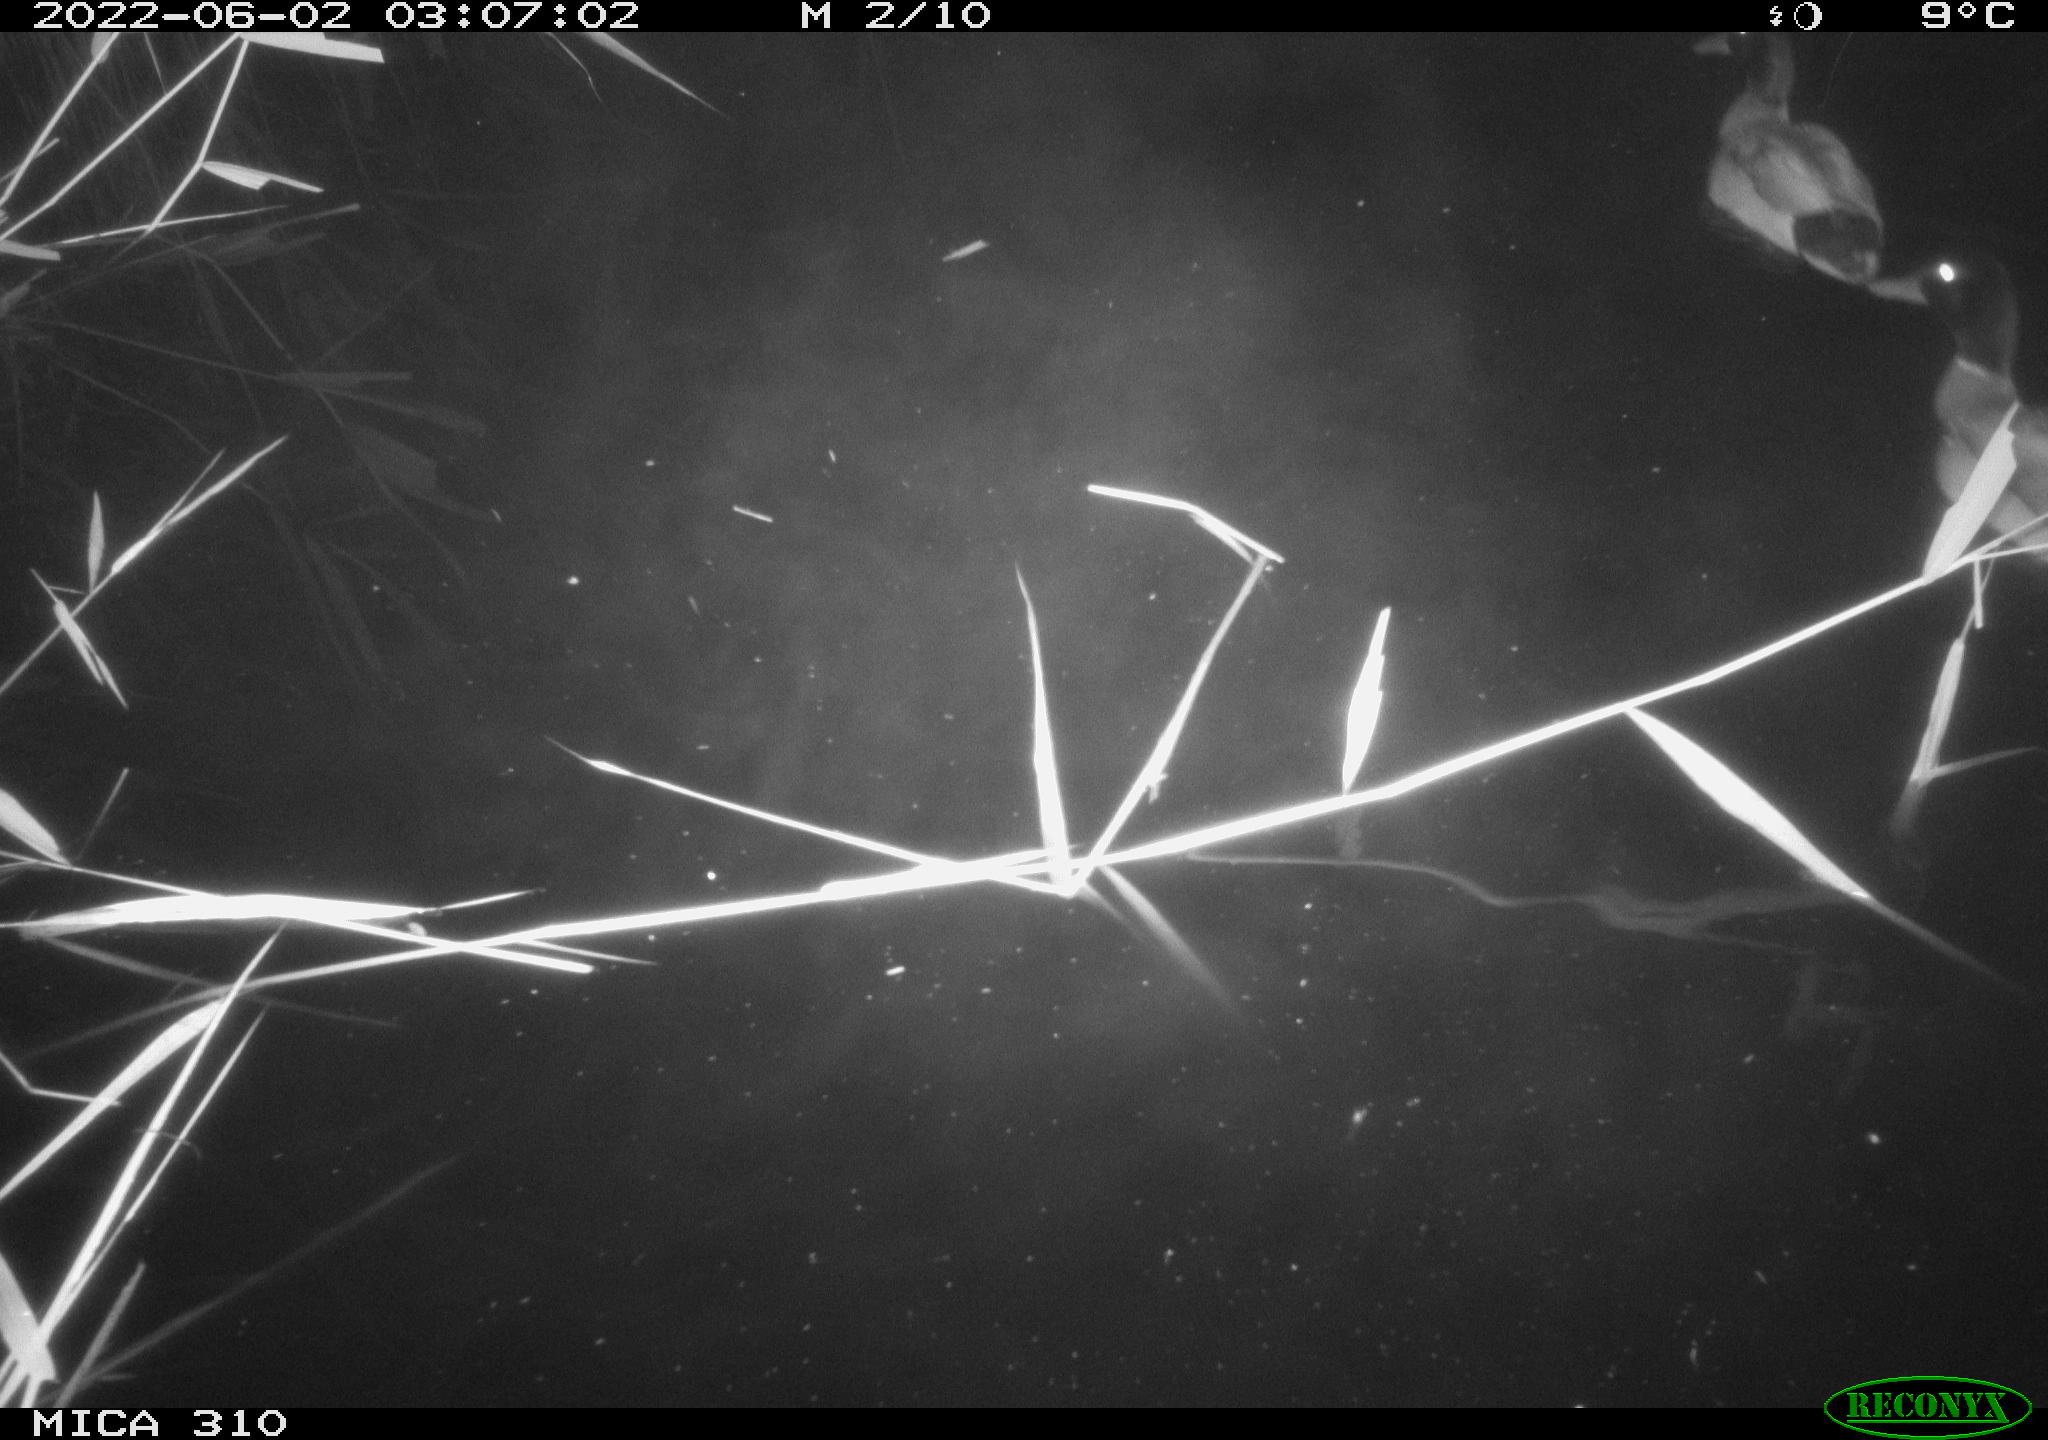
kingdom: Animalia
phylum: Chordata
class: Aves
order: Anseriformes
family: Anatidae
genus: Anas
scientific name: Anas platyrhynchos
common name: Mallard
